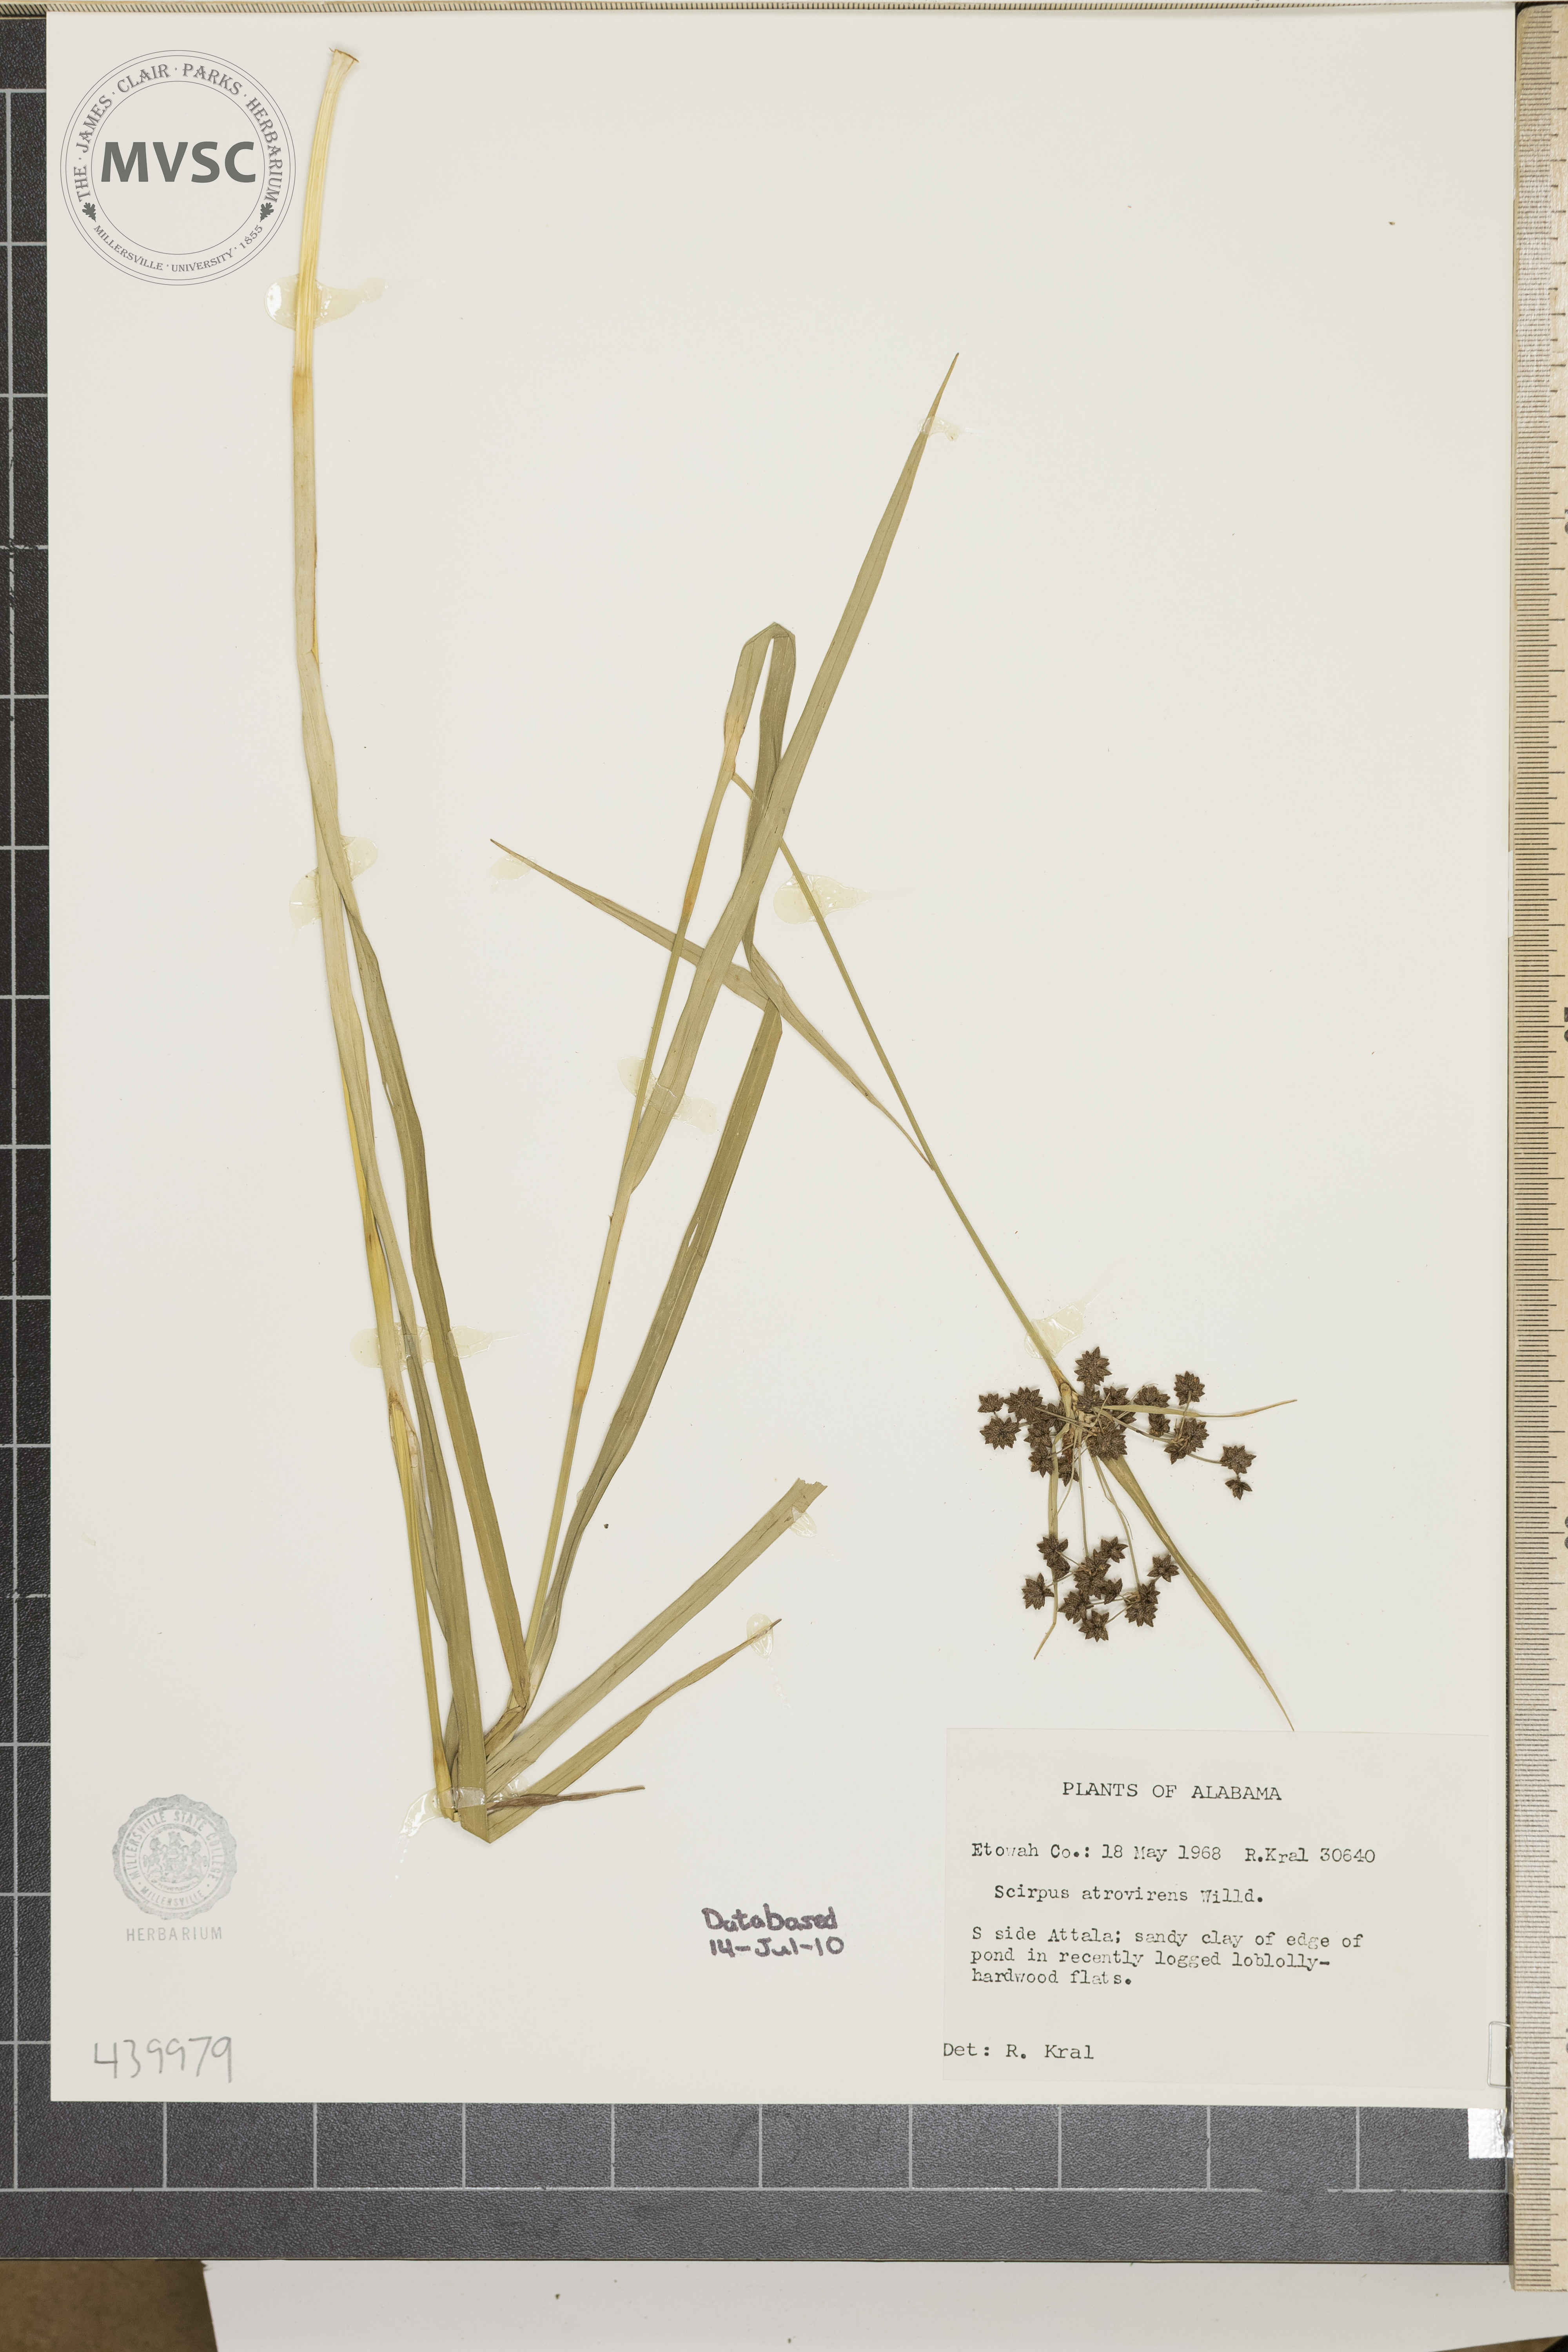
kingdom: Plantae
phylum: Tracheophyta
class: Liliopsida
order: Poales
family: Cyperaceae
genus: Scirpus
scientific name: Scirpus atrovirens
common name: Black bulrush
